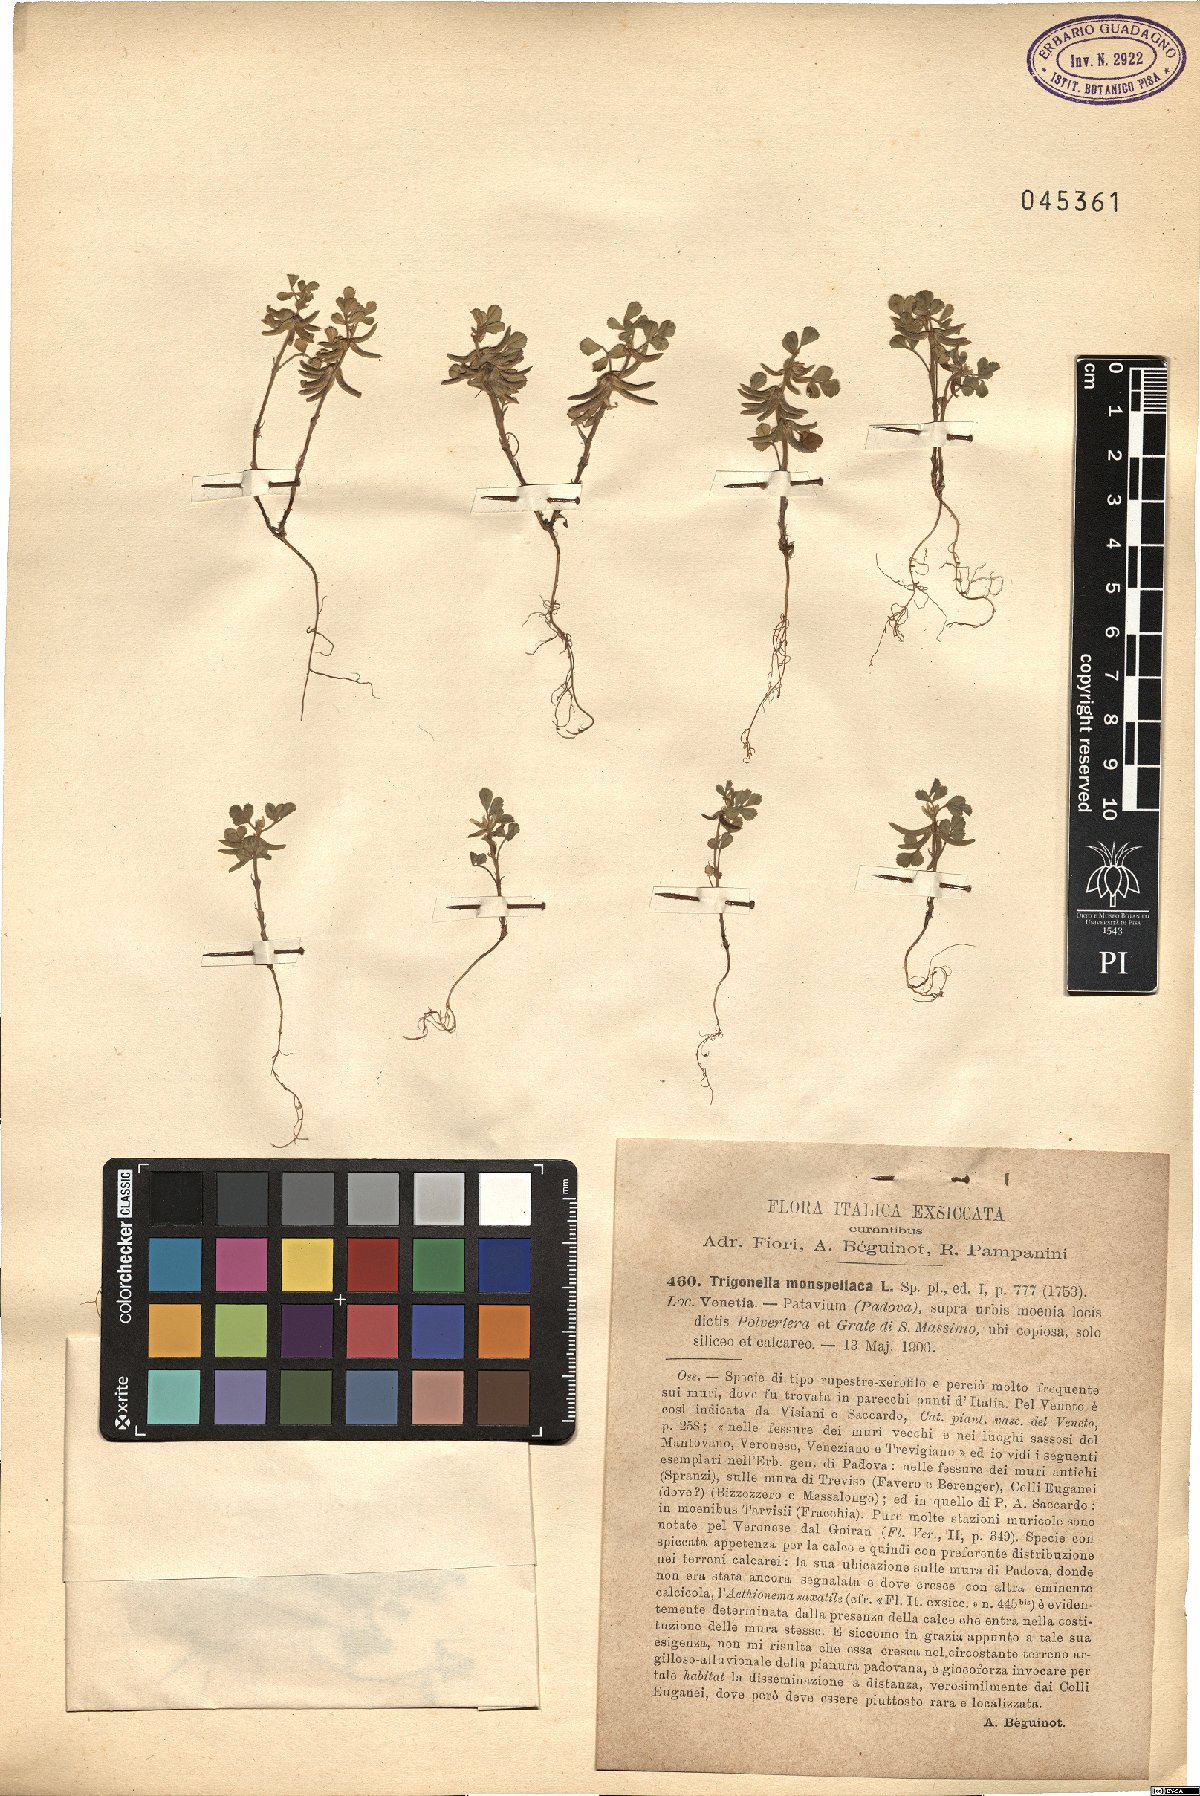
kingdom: Plantae
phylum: Tracheophyta
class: Magnoliopsida
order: Fabales
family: Fabaceae
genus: Medicago
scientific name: Medicago monspeliaca
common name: Hairy medick
